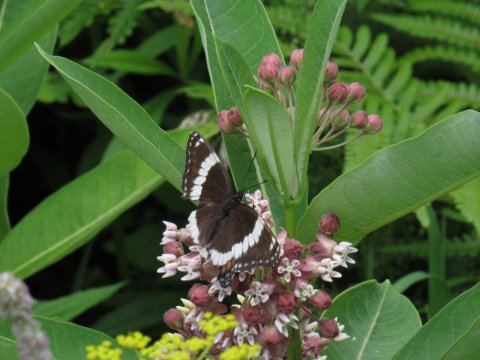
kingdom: Animalia
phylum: Arthropoda
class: Insecta
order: Lepidoptera
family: Nymphalidae
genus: Limenitis
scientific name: Limenitis arthemis
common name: Red-spotted Admiral
